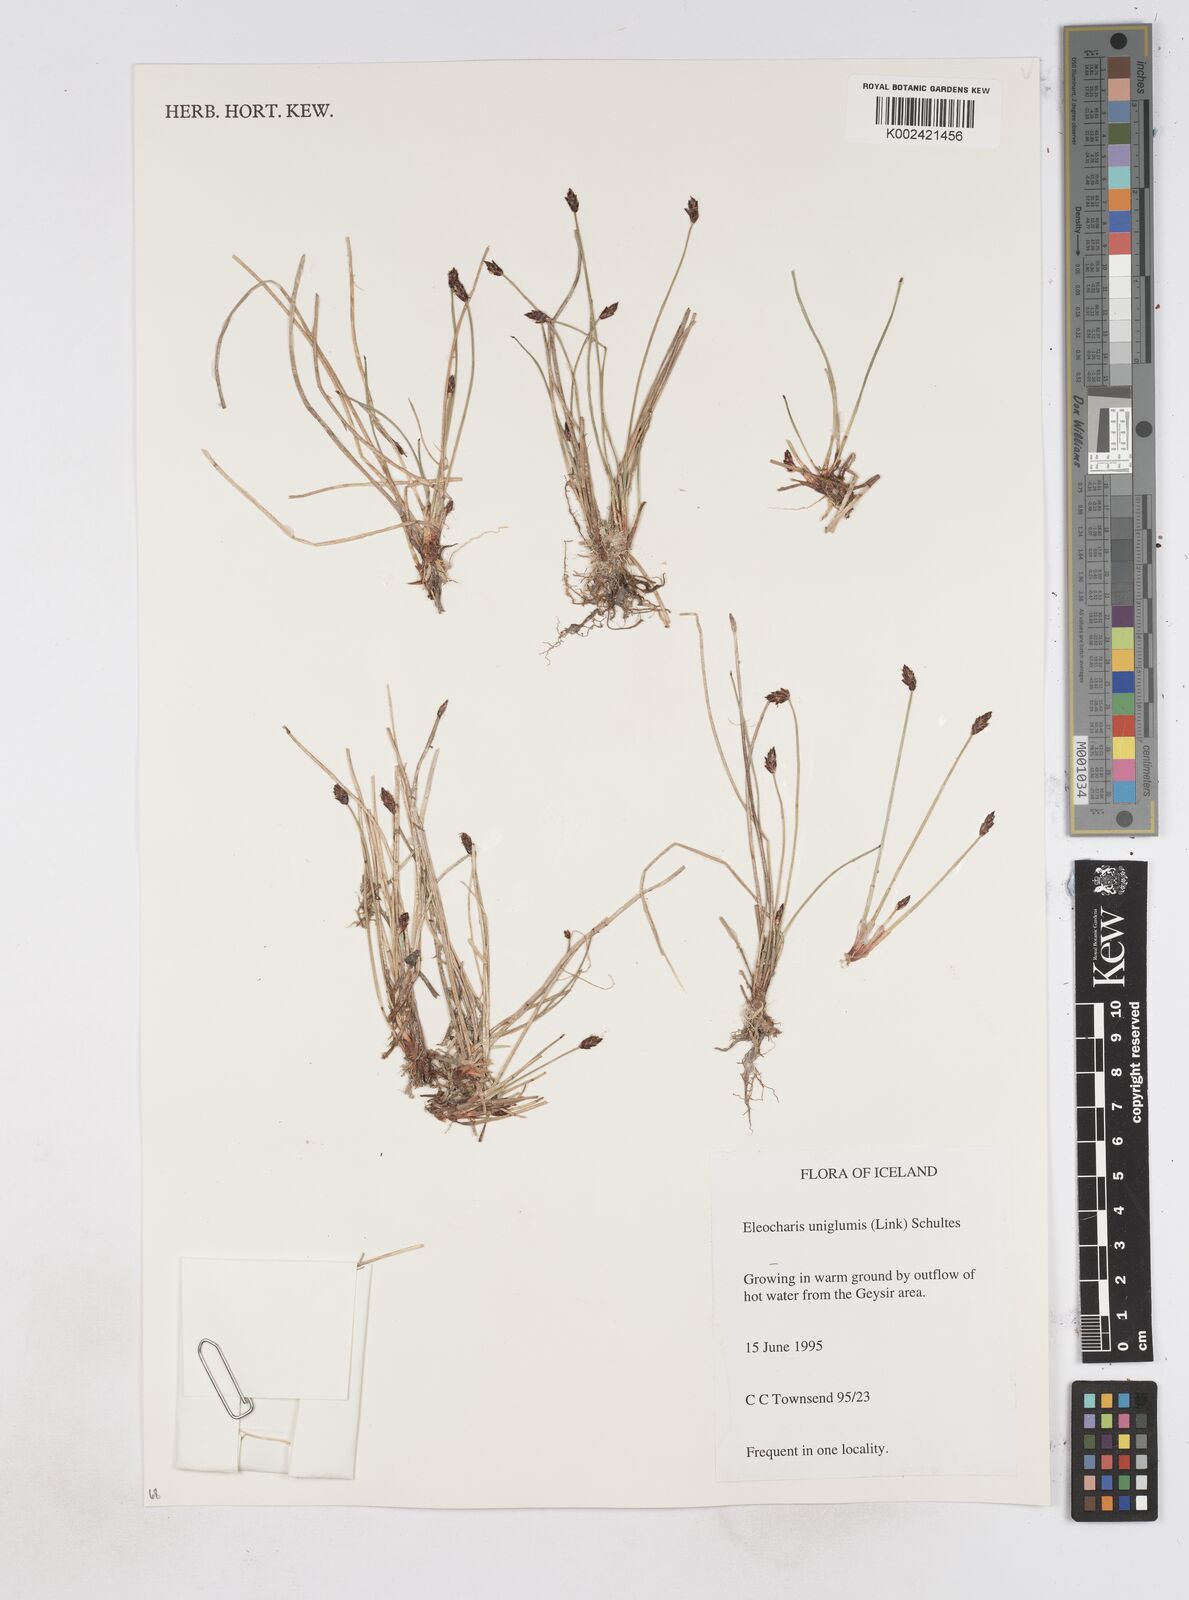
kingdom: Plantae
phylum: Tracheophyta
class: Liliopsida
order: Poales
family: Cyperaceae
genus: Eleocharis
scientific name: Eleocharis uniglumis
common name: Slender spike-rush
